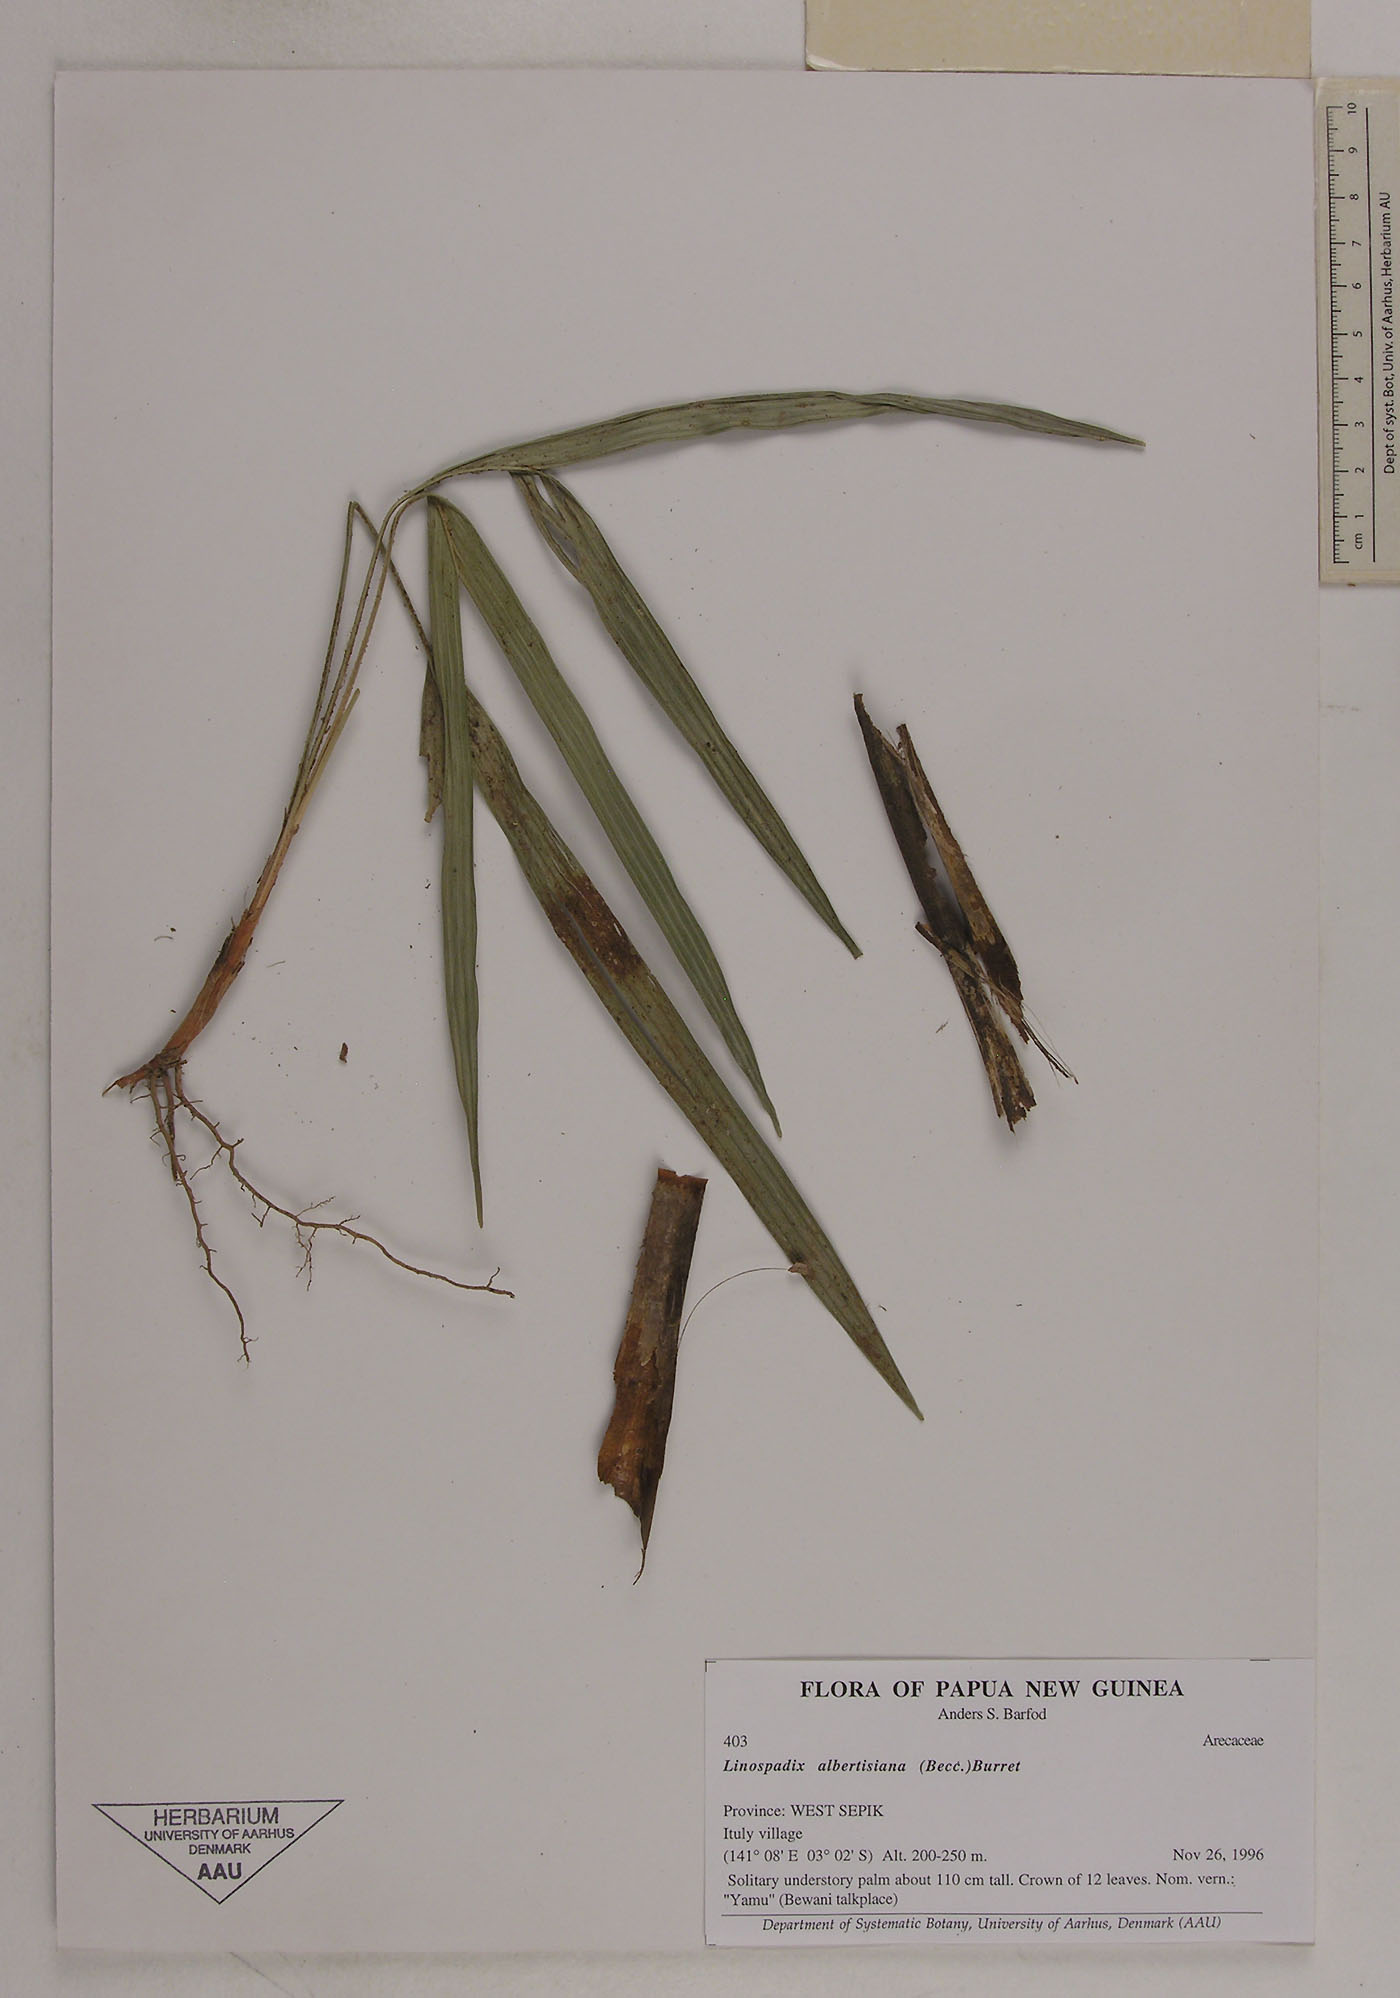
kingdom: Plantae
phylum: Tracheophyta
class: Liliopsida
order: Arecales
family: Arecaceae
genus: Linospadix
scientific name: Linospadix albertisianus
